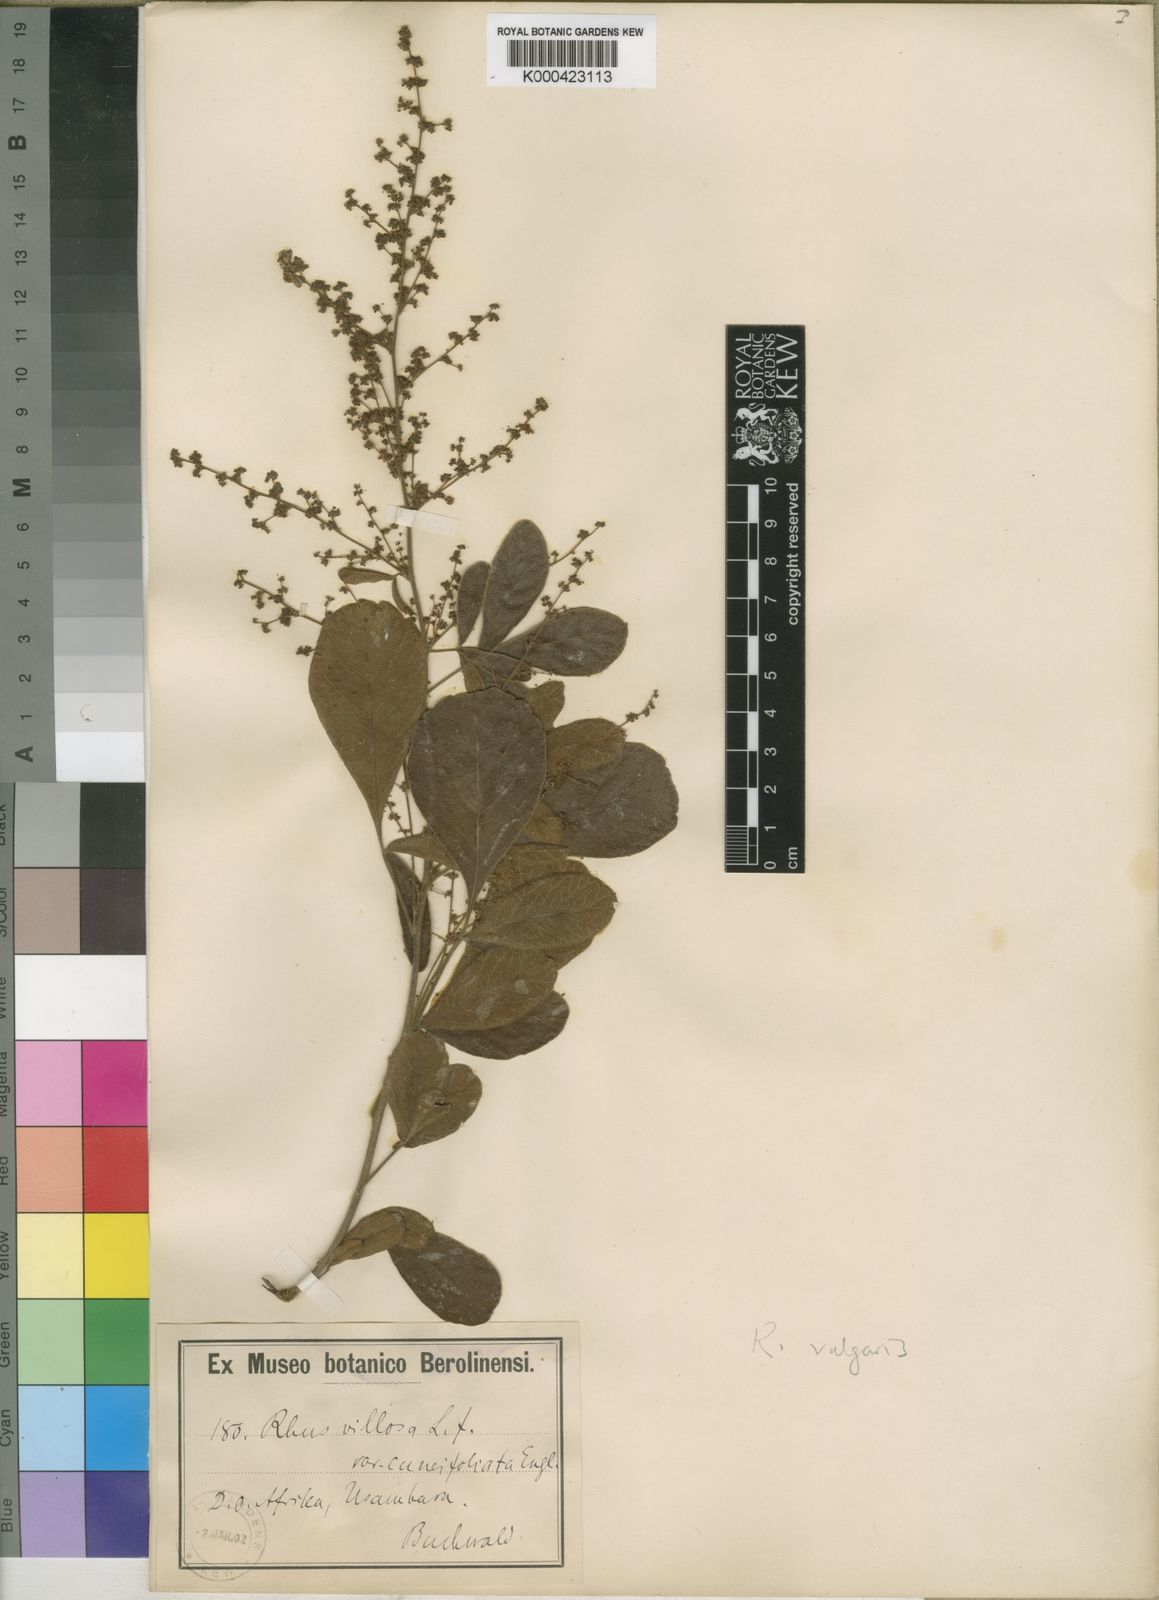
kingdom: Plantae
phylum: Tracheophyta
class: Magnoliopsida
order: Sapindales
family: Anacardiaceae
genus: Searsia
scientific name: Searsia pyroides
